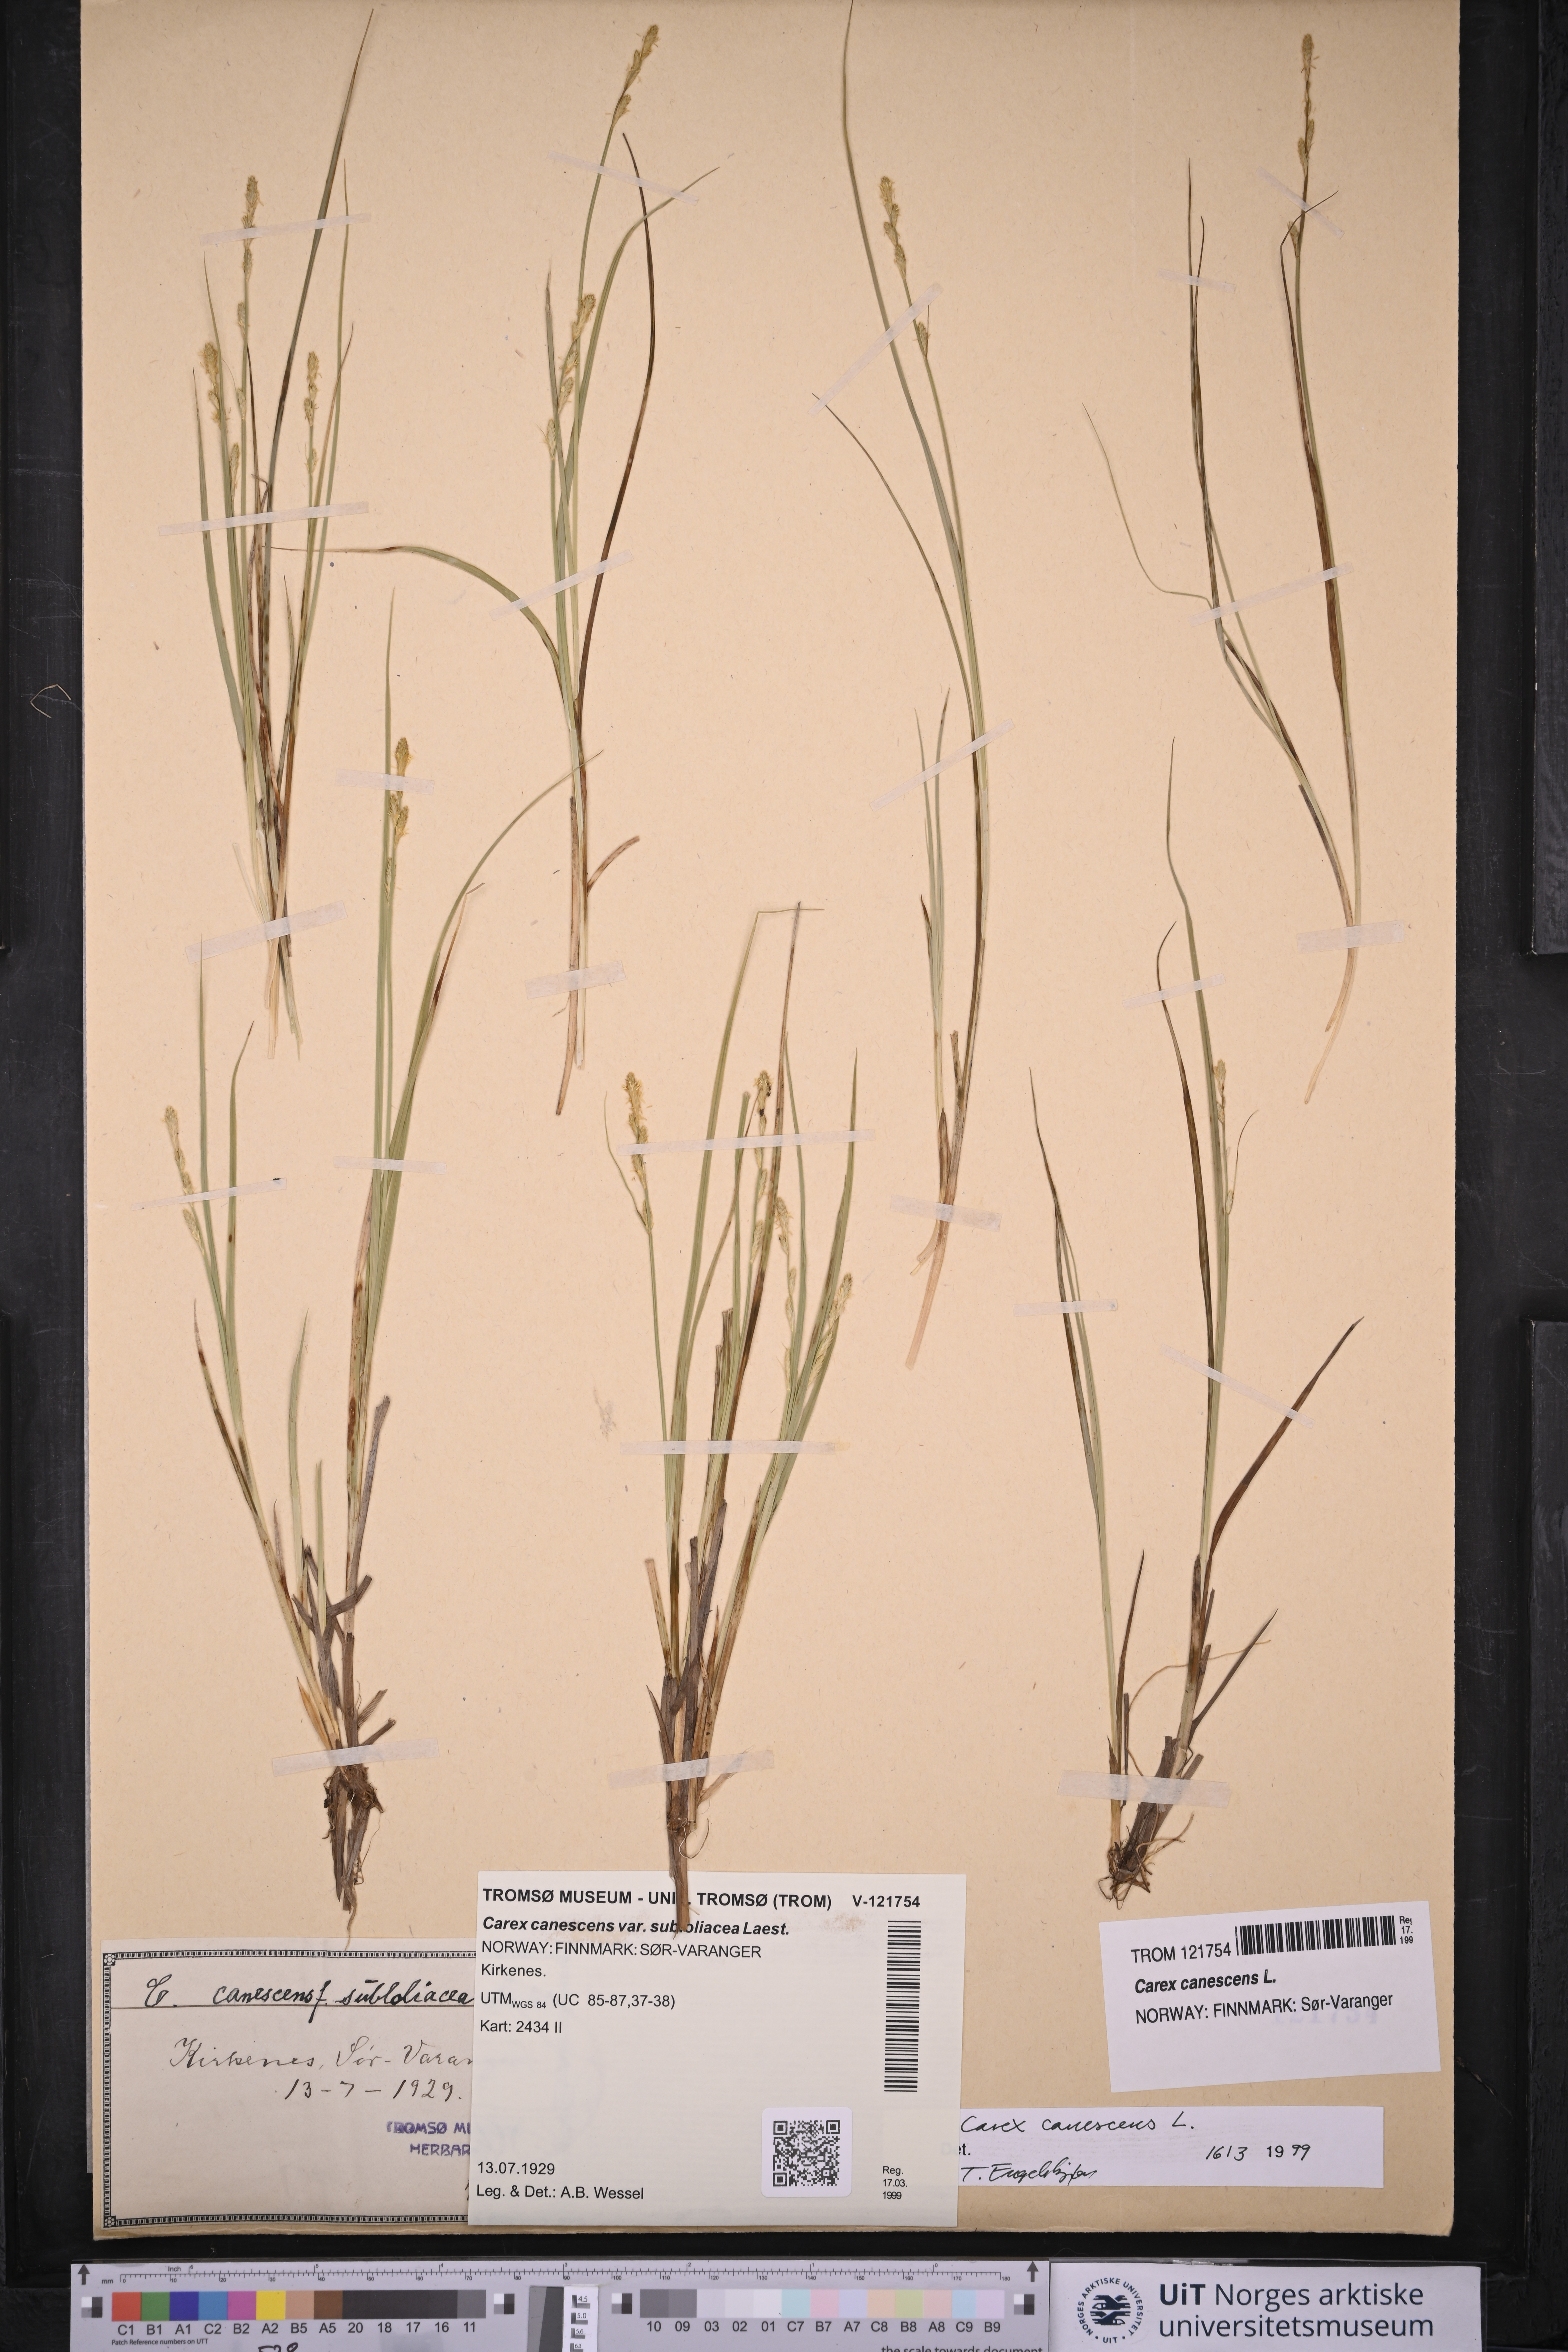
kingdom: Plantae
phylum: Tracheophyta
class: Liliopsida
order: Poales
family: Cyperaceae
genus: Carex
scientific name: Carex canescens
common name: White sedge
